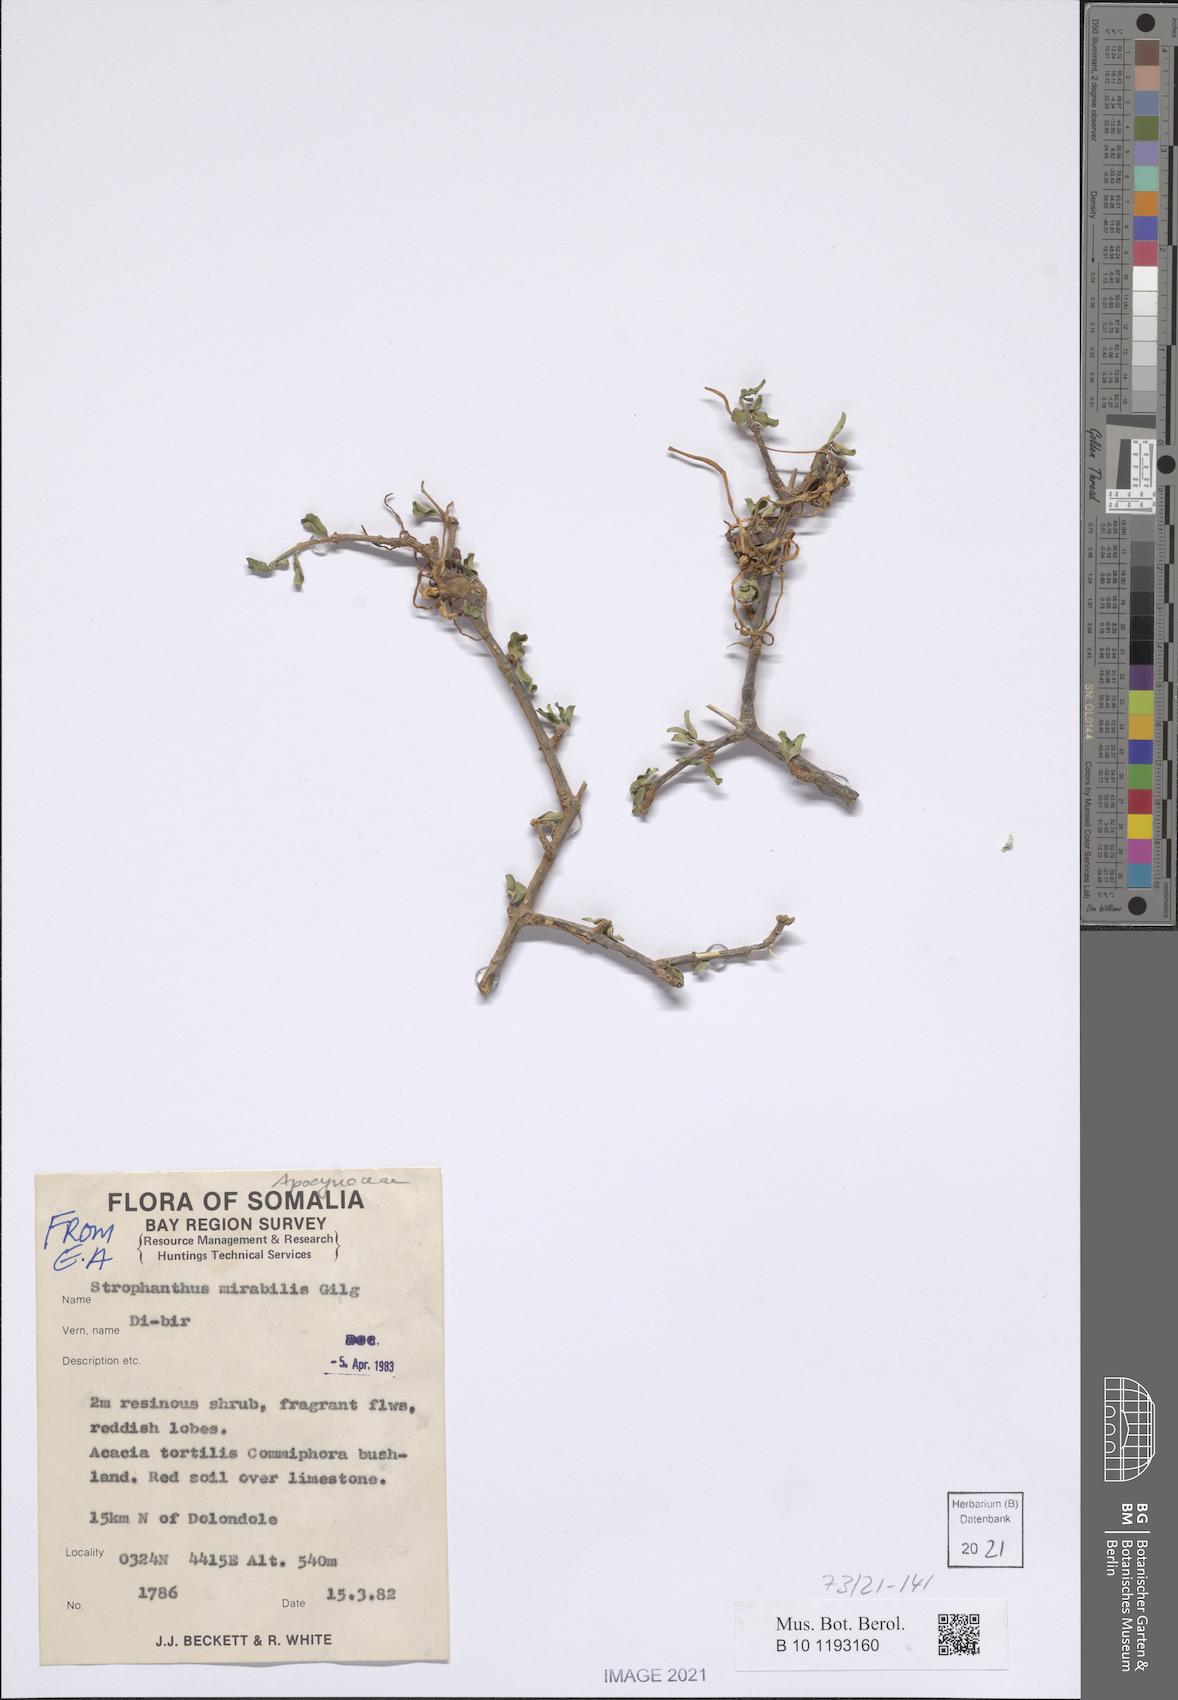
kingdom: Plantae
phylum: Tracheophyta
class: Magnoliopsida
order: Gentianales
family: Apocynaceae
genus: Strophanthus
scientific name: Strophanthus mirabilis
